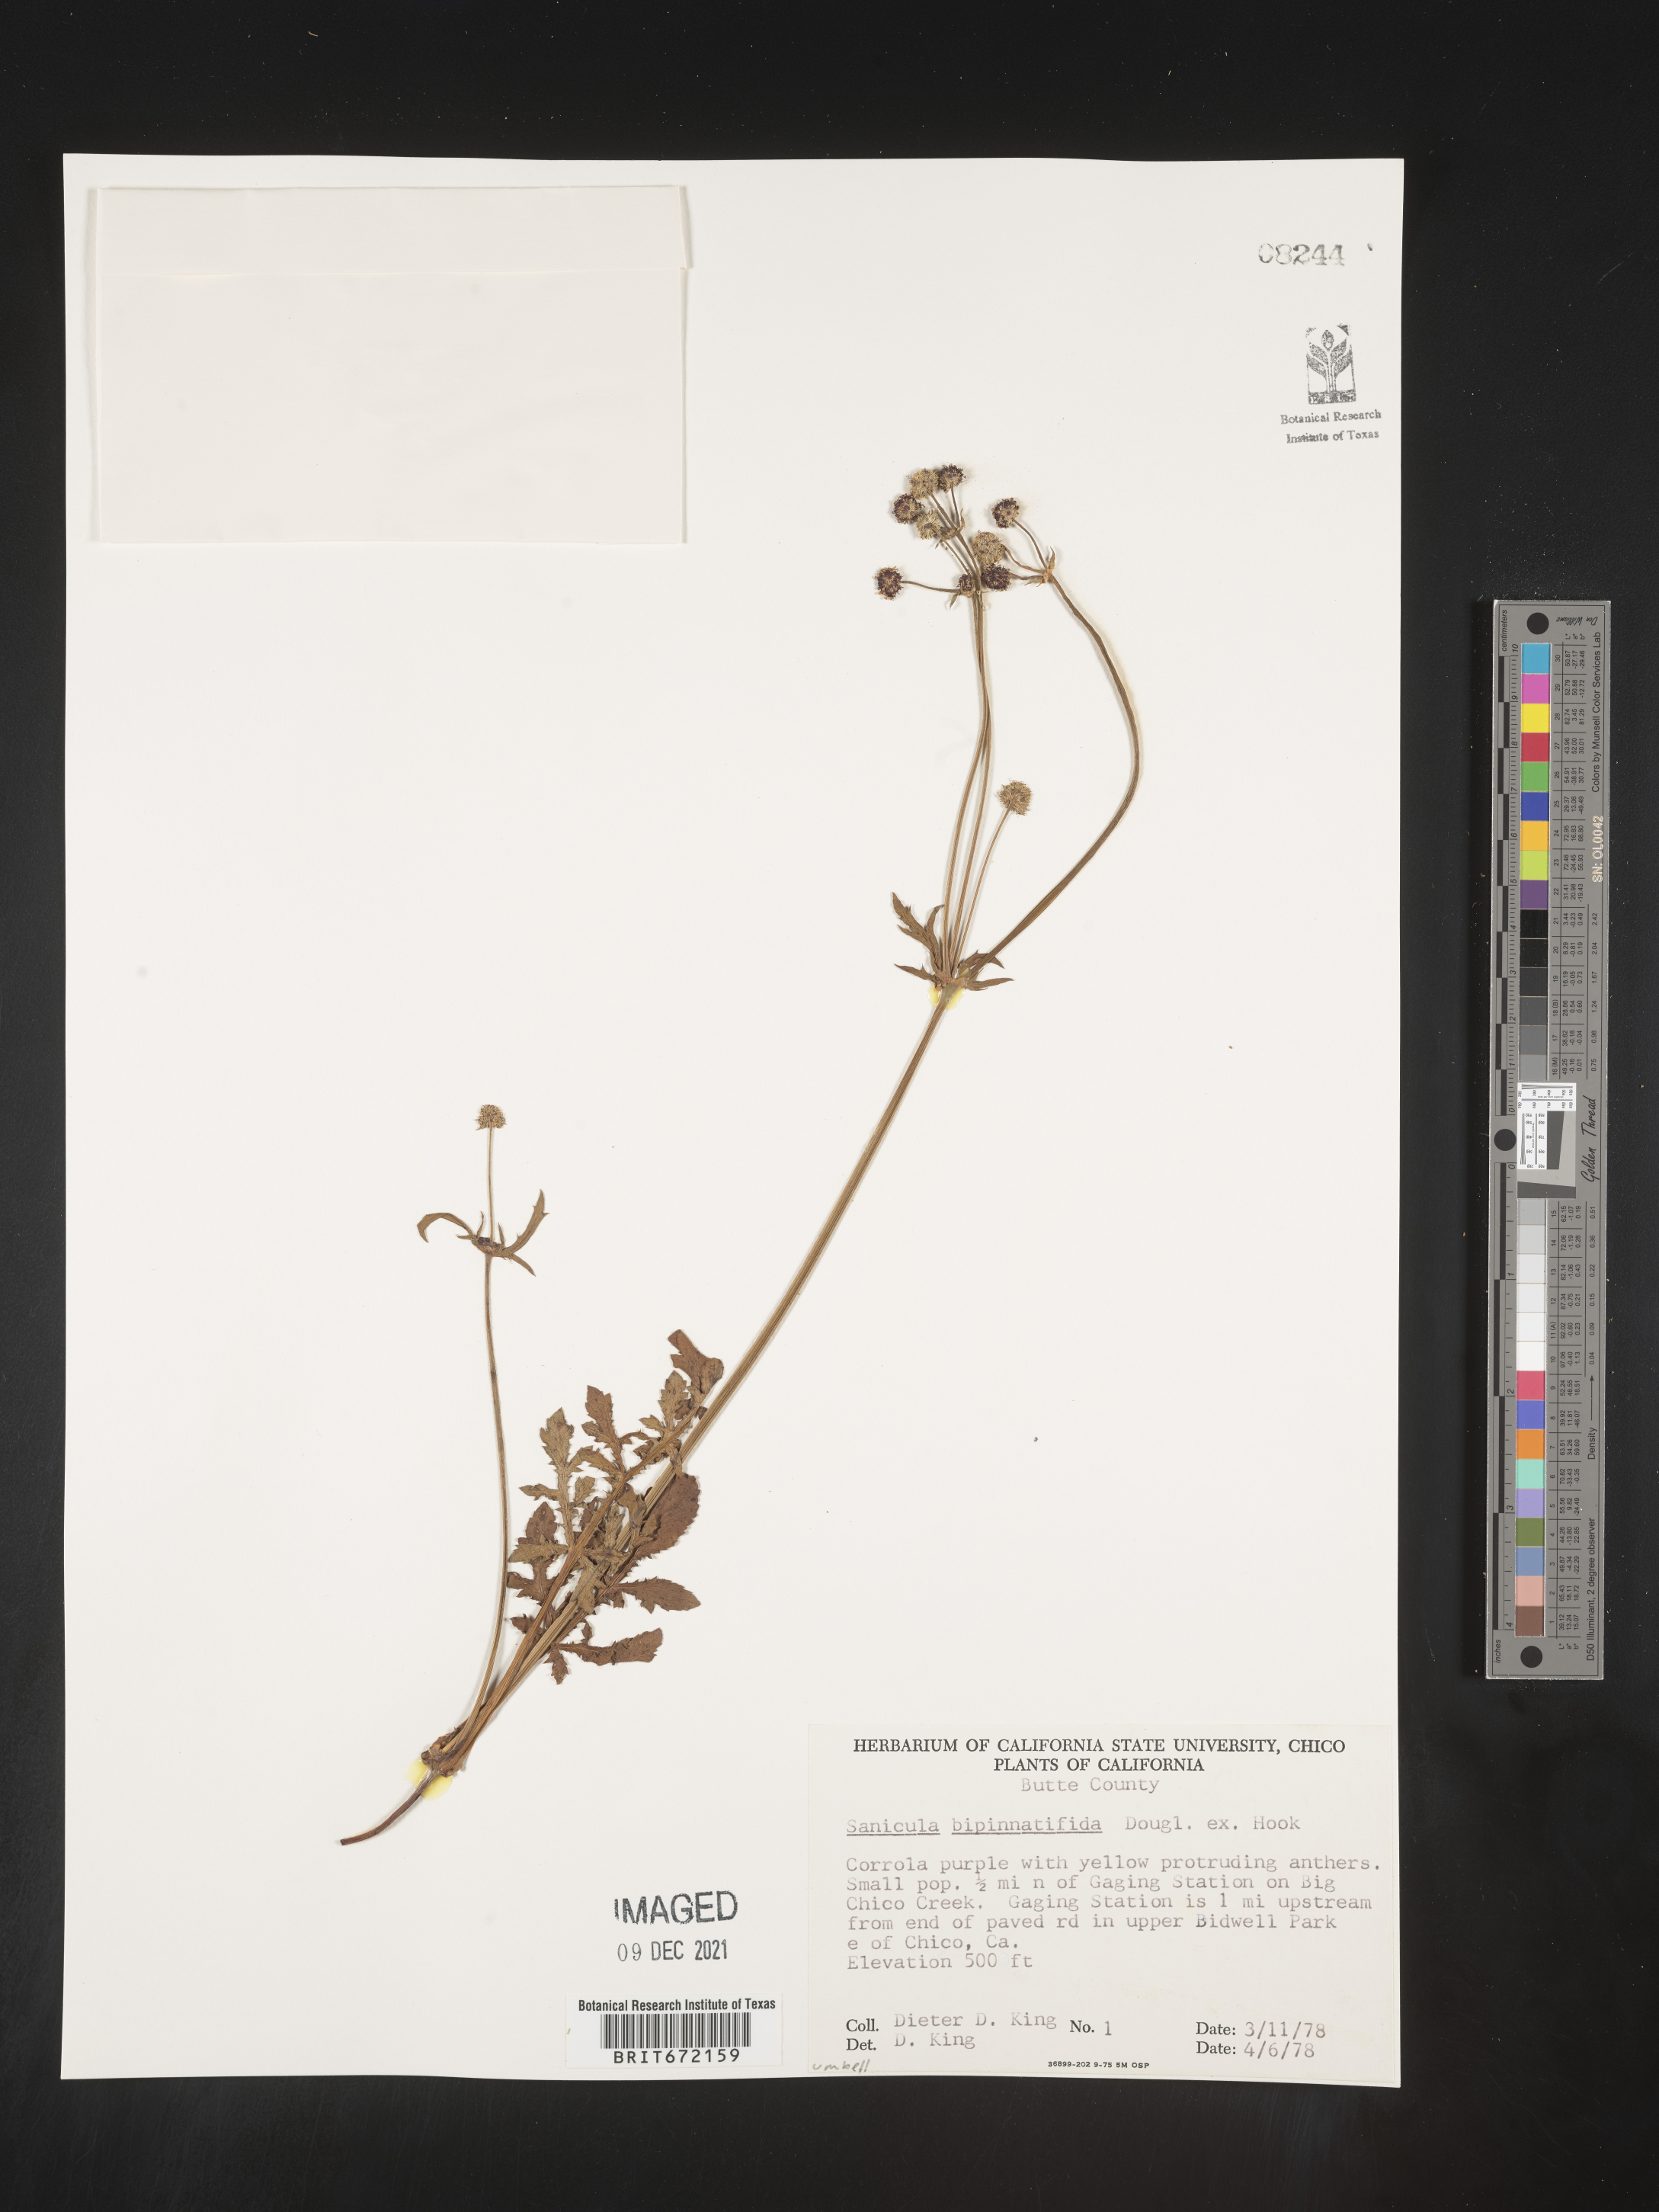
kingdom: Plantae
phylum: Tracheophyta
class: Magnoliopsida
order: Apiales
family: Apiaceae
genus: Sanicula
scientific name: Sanicula
